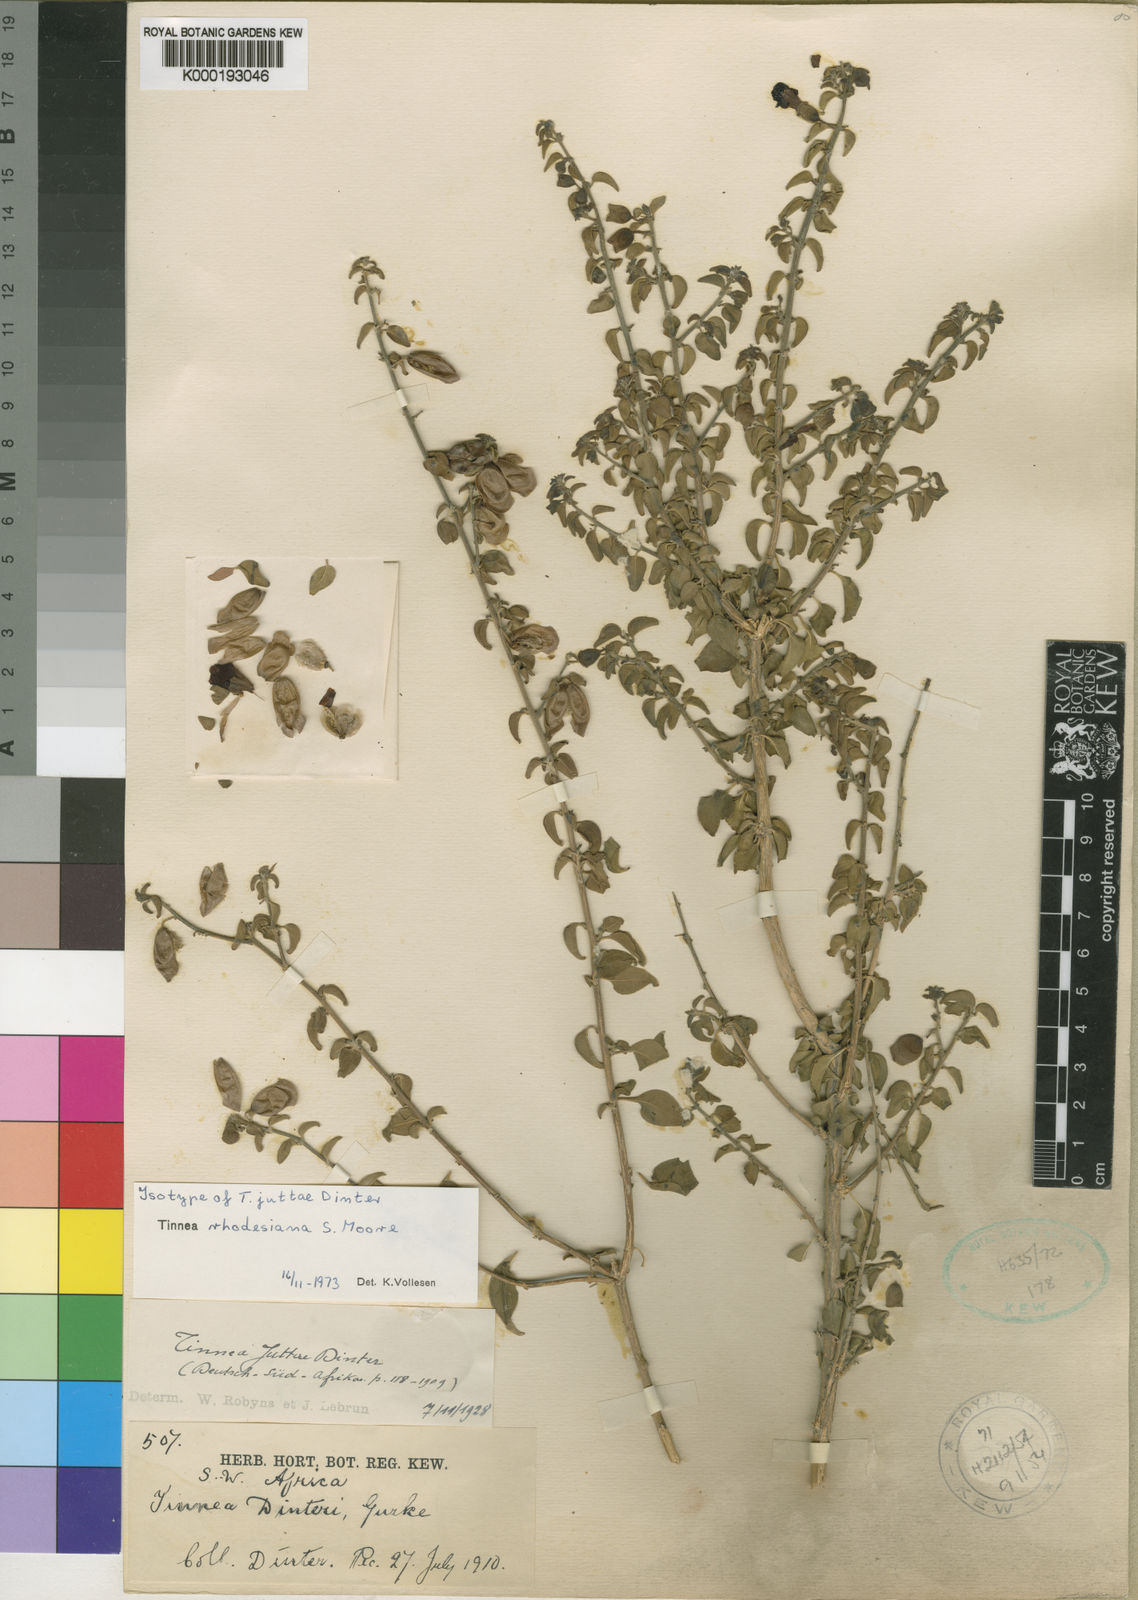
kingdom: Plantae
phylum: Tracheophyta
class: Magnoliopsida
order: Lamiales
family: Lamiaceae
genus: Tinnea
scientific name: Tinnea rhodesiana
